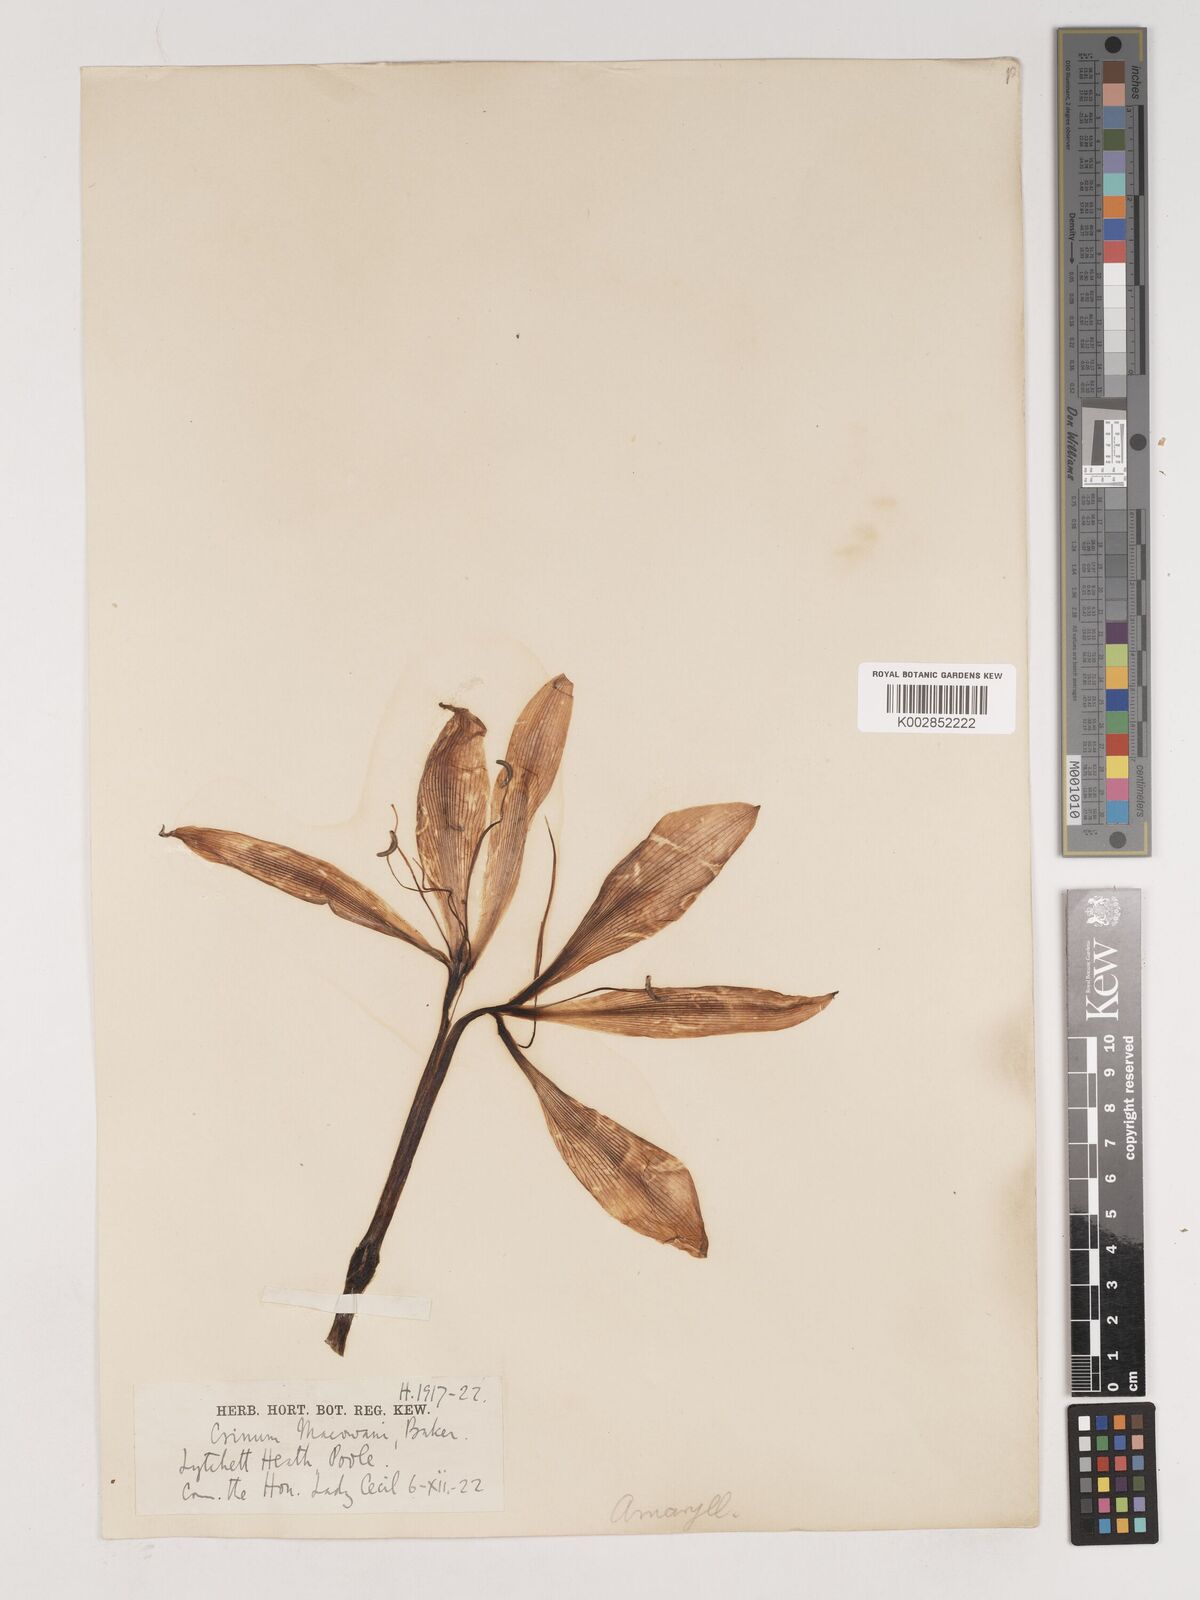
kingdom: Plantae
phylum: Tracheophyta
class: Liliopsida
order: Asparagales
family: Amaryllidaceae
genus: Crinum
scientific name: Crinum macowanii
